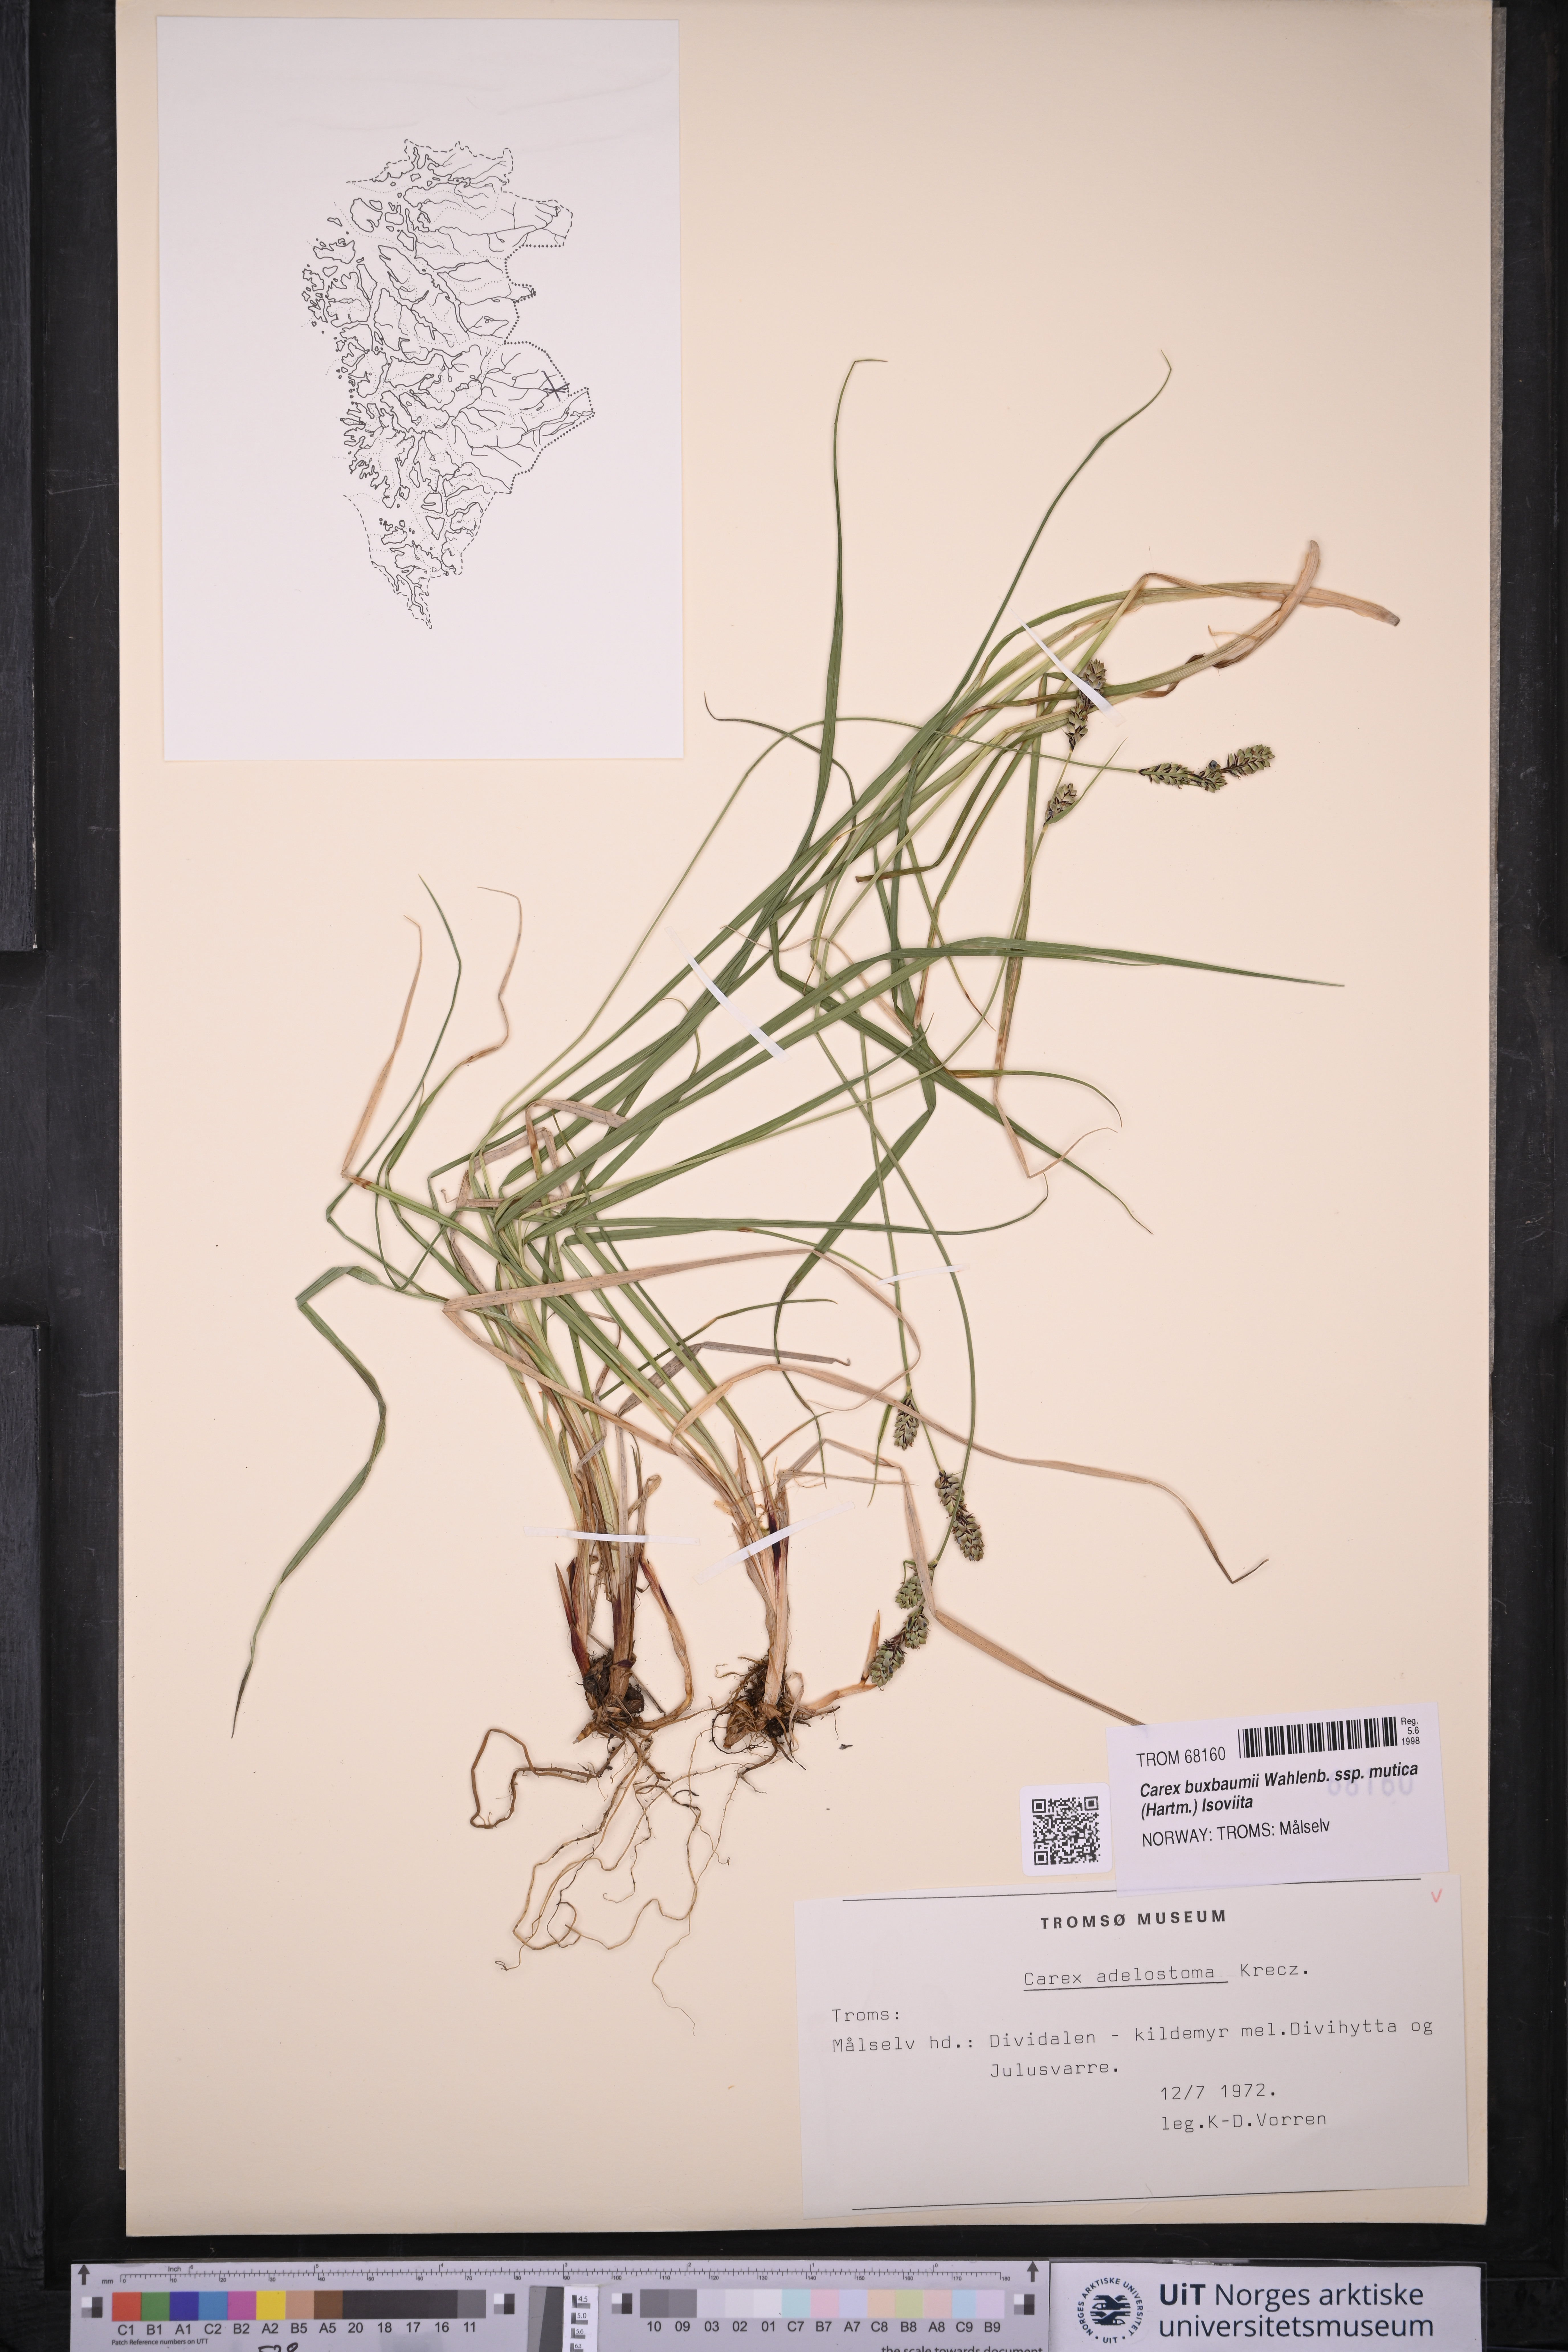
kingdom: Plantae
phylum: Tracheophyta
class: Liliopsida
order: Poales
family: Cyperaceae
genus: Carex
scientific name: Carex adelostoma
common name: Circumpolar sedge
